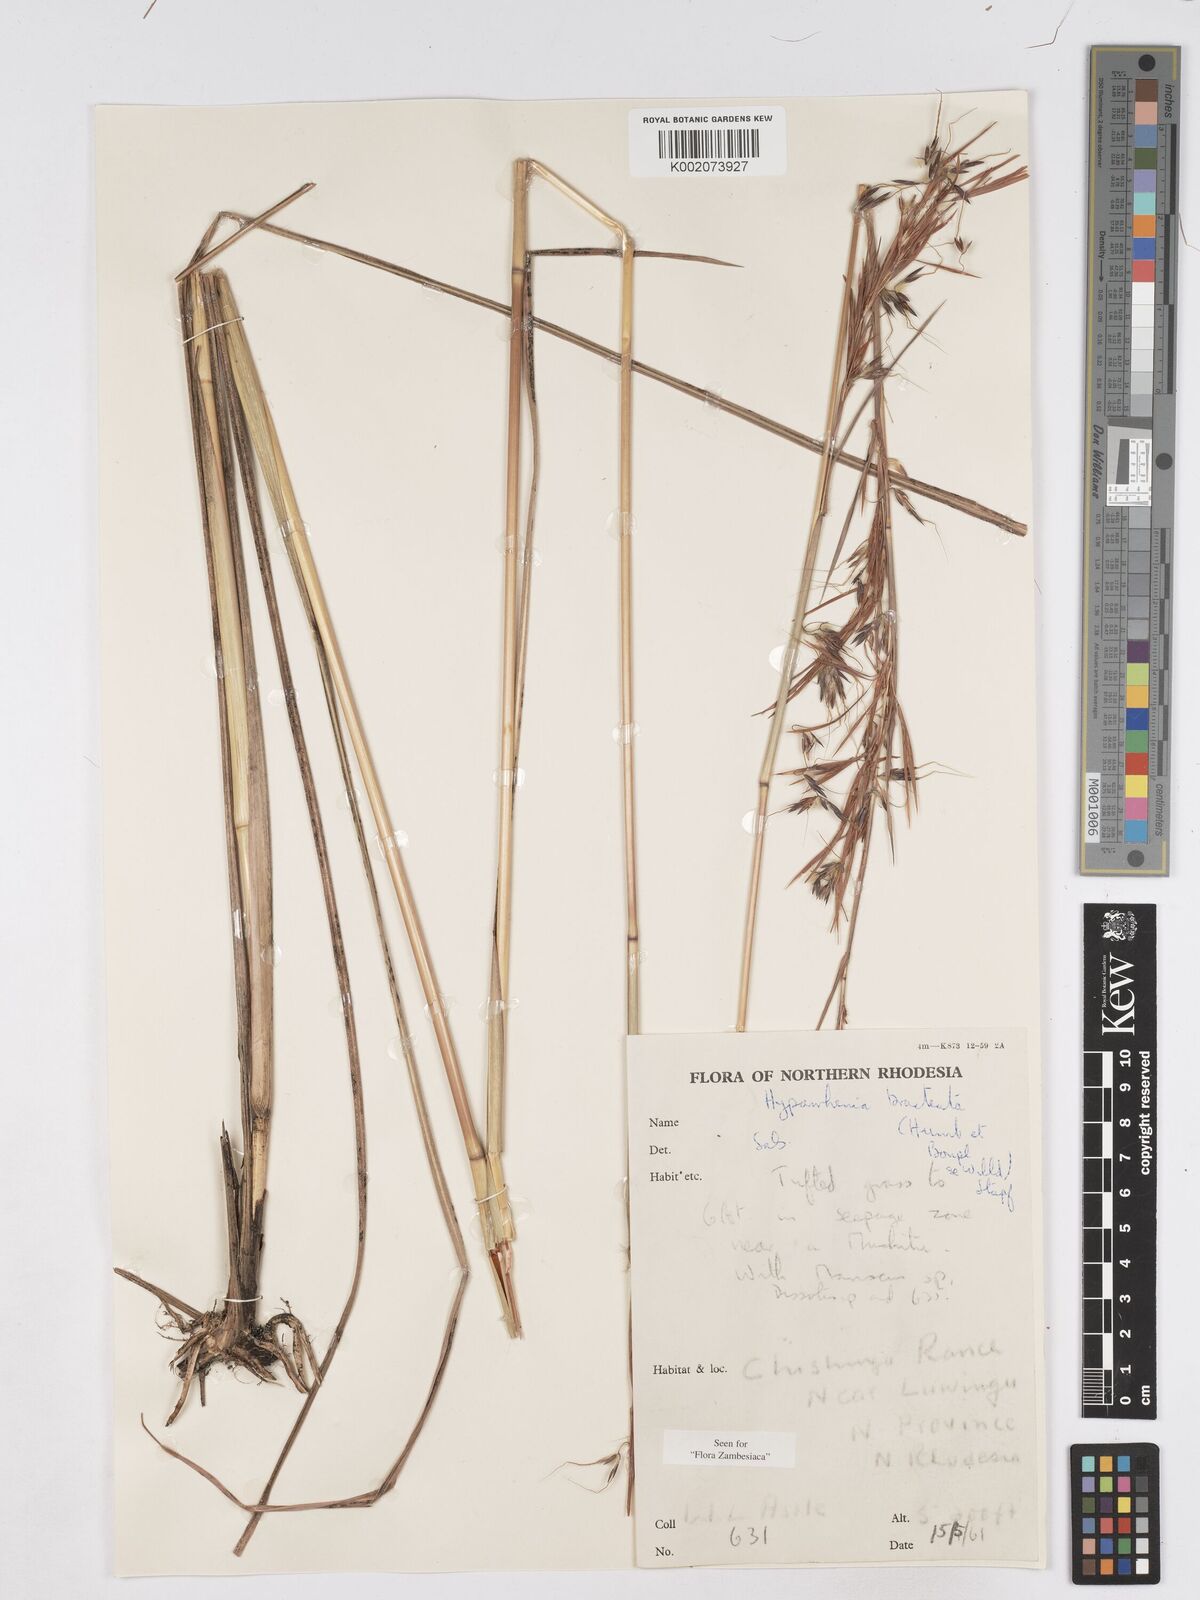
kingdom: Plantae
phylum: Tracheophyta
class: Liliopsida
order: Poales
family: Poaceae
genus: Hyparrhenia
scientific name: Hyparrhenia bracteata
